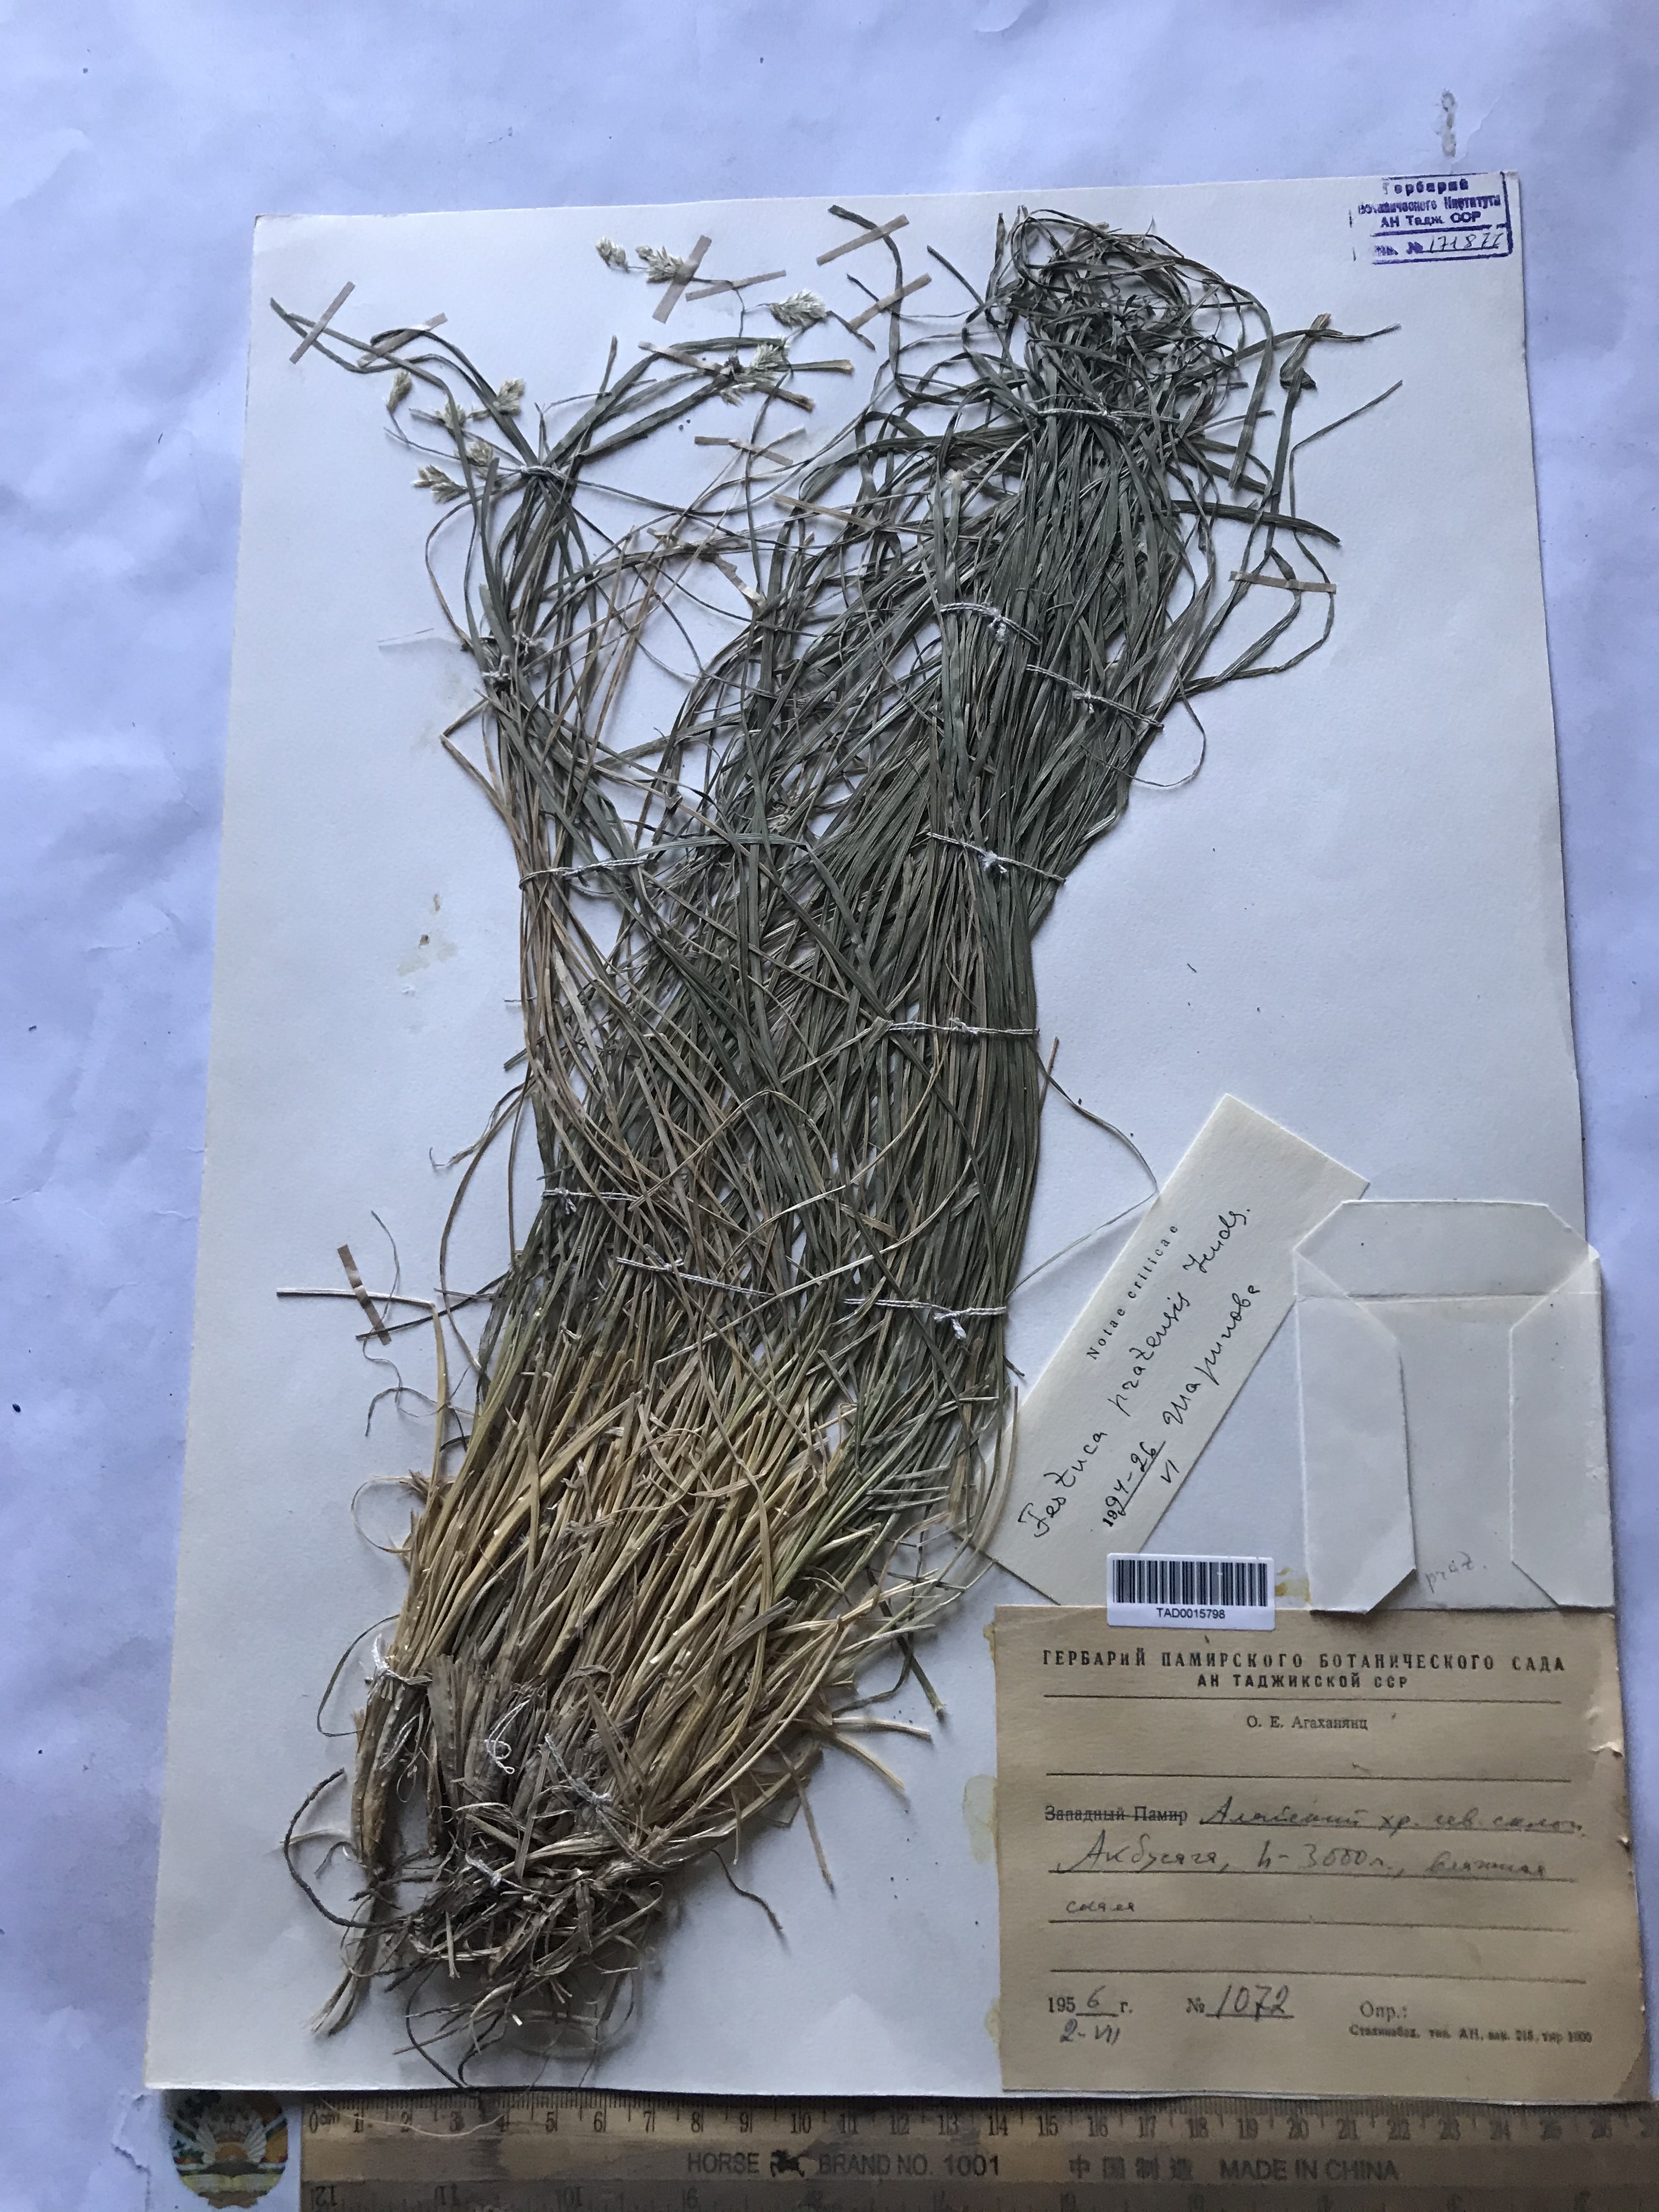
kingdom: Plantae
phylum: Tracheophyta
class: Liliopsida
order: Poales
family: Poaceae
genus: Lolium
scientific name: Lolium pratense
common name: Dover grass
